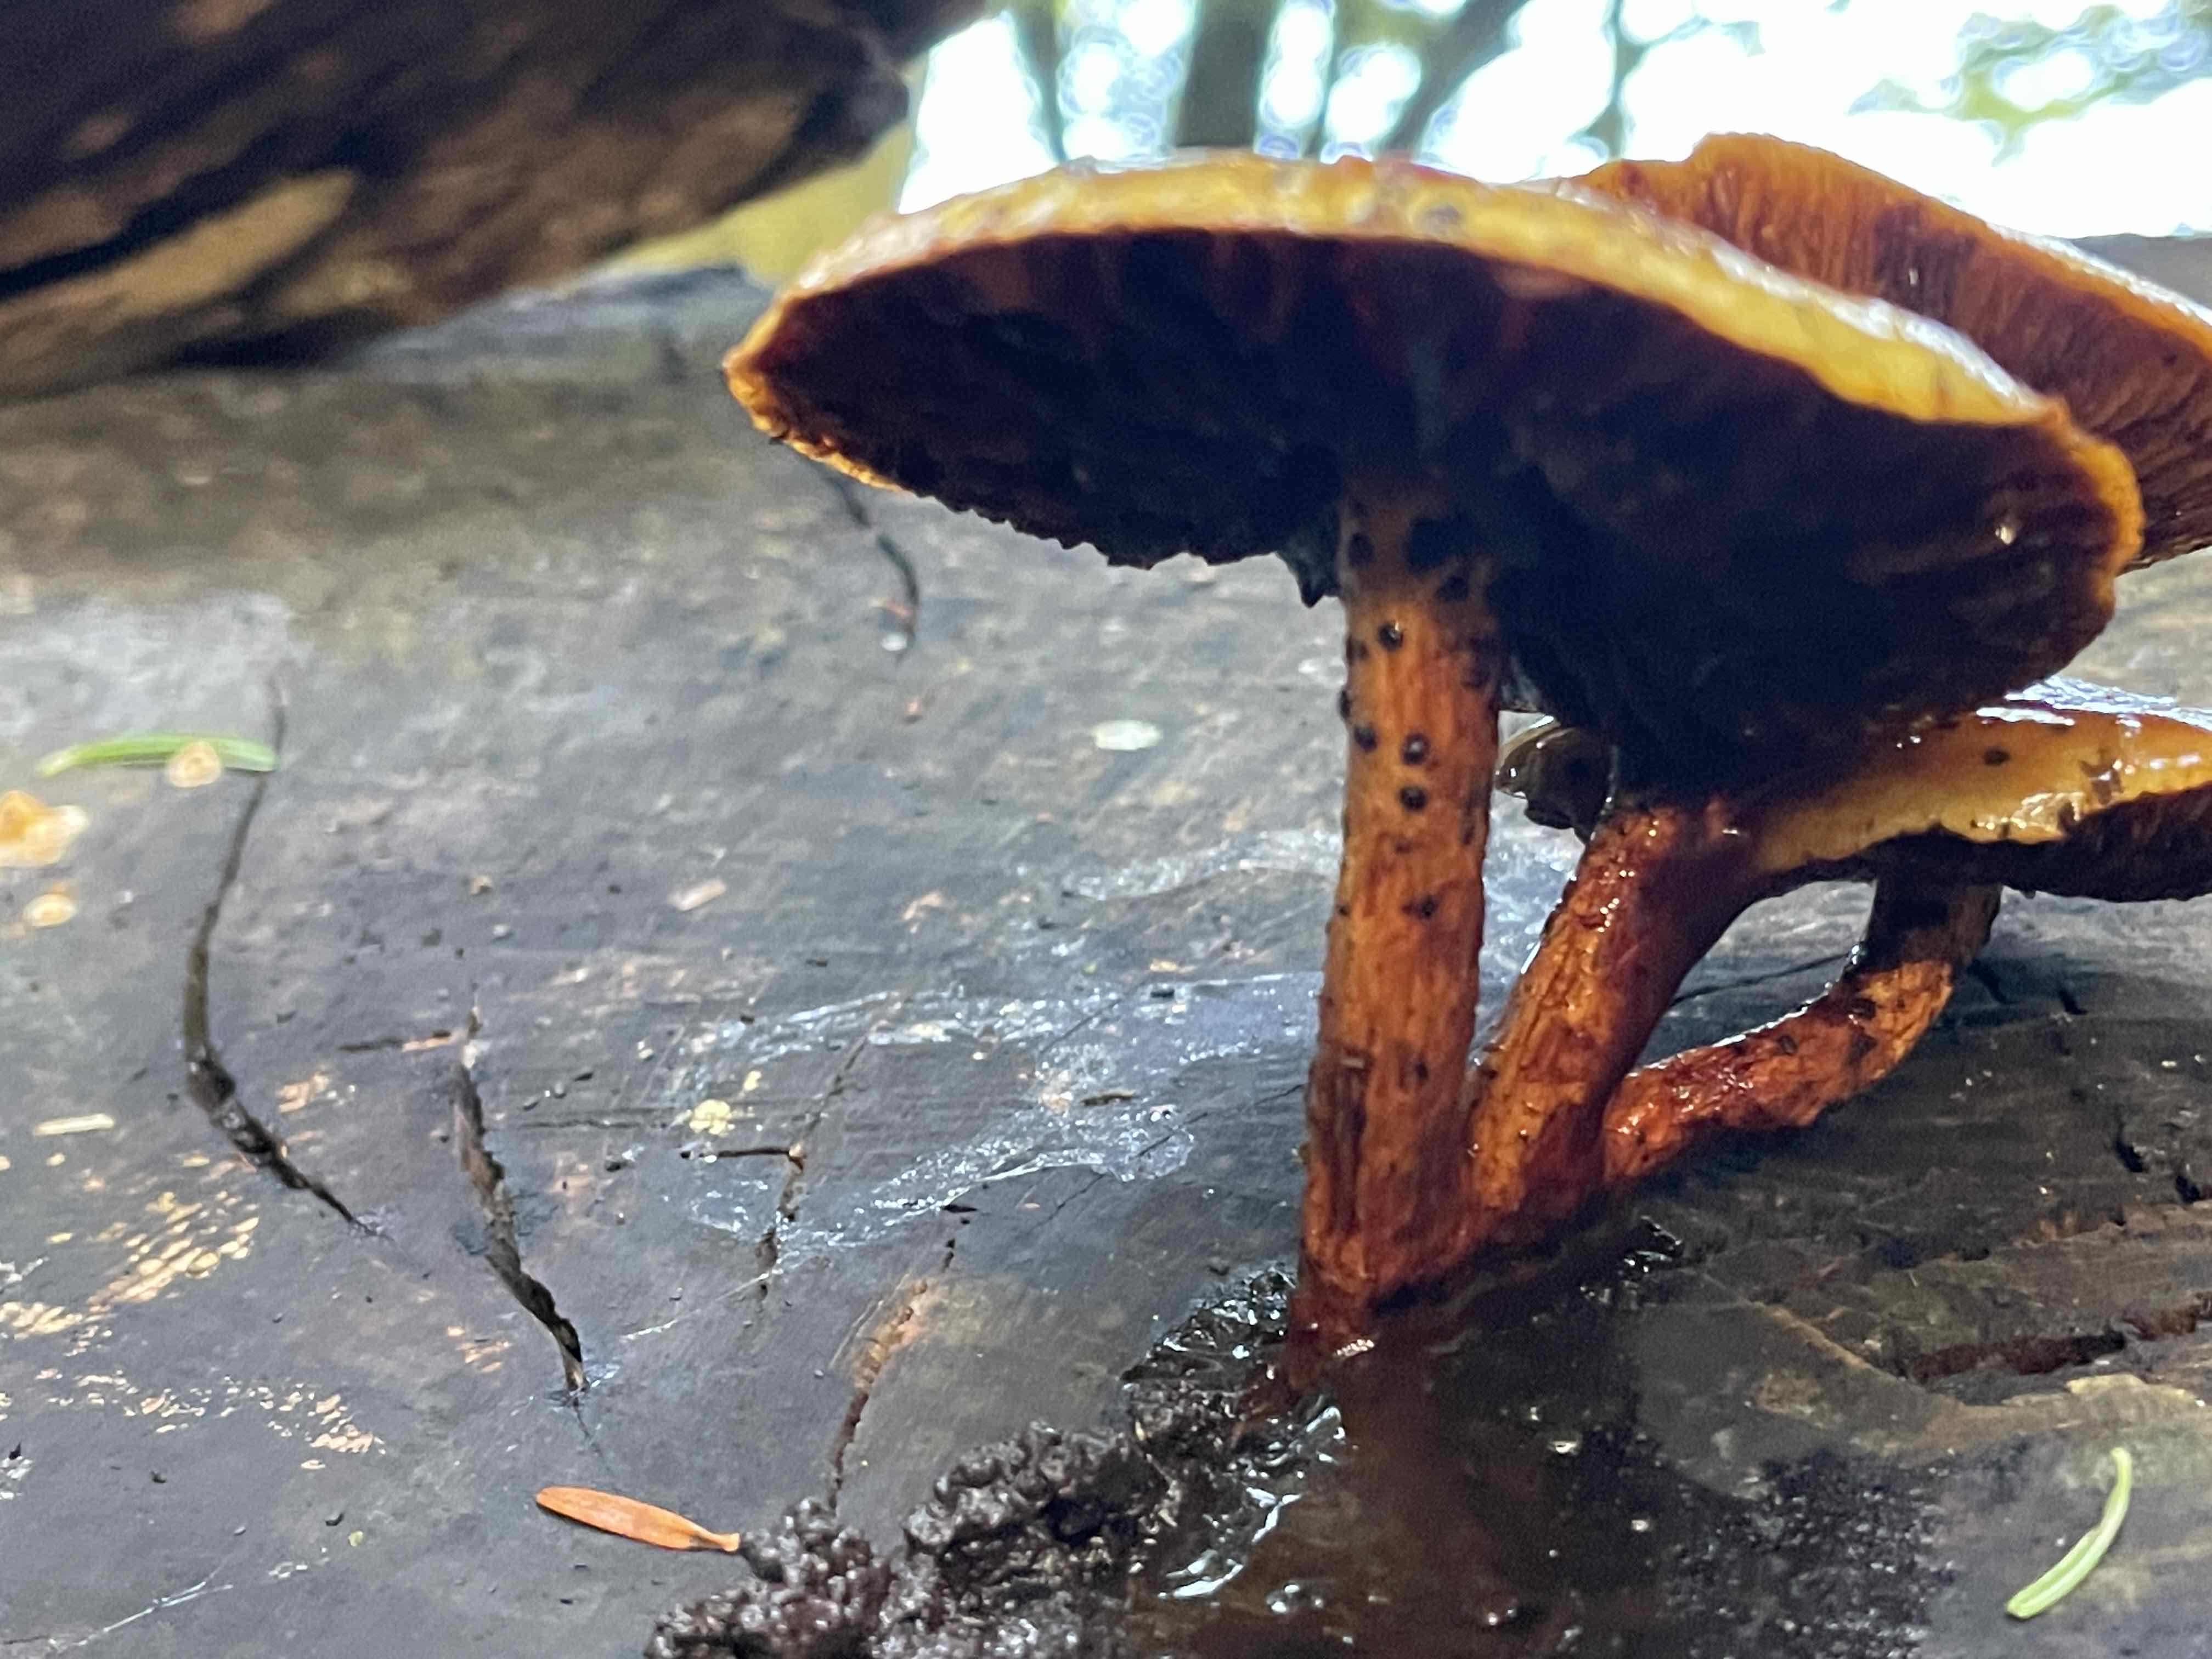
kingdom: Fungi
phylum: Basidiomycota
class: Agaricomycetes
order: Agaricales
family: Strophariaceae
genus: Pholiota
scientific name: Pholiota adiposa
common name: højtsiddende skælhat
